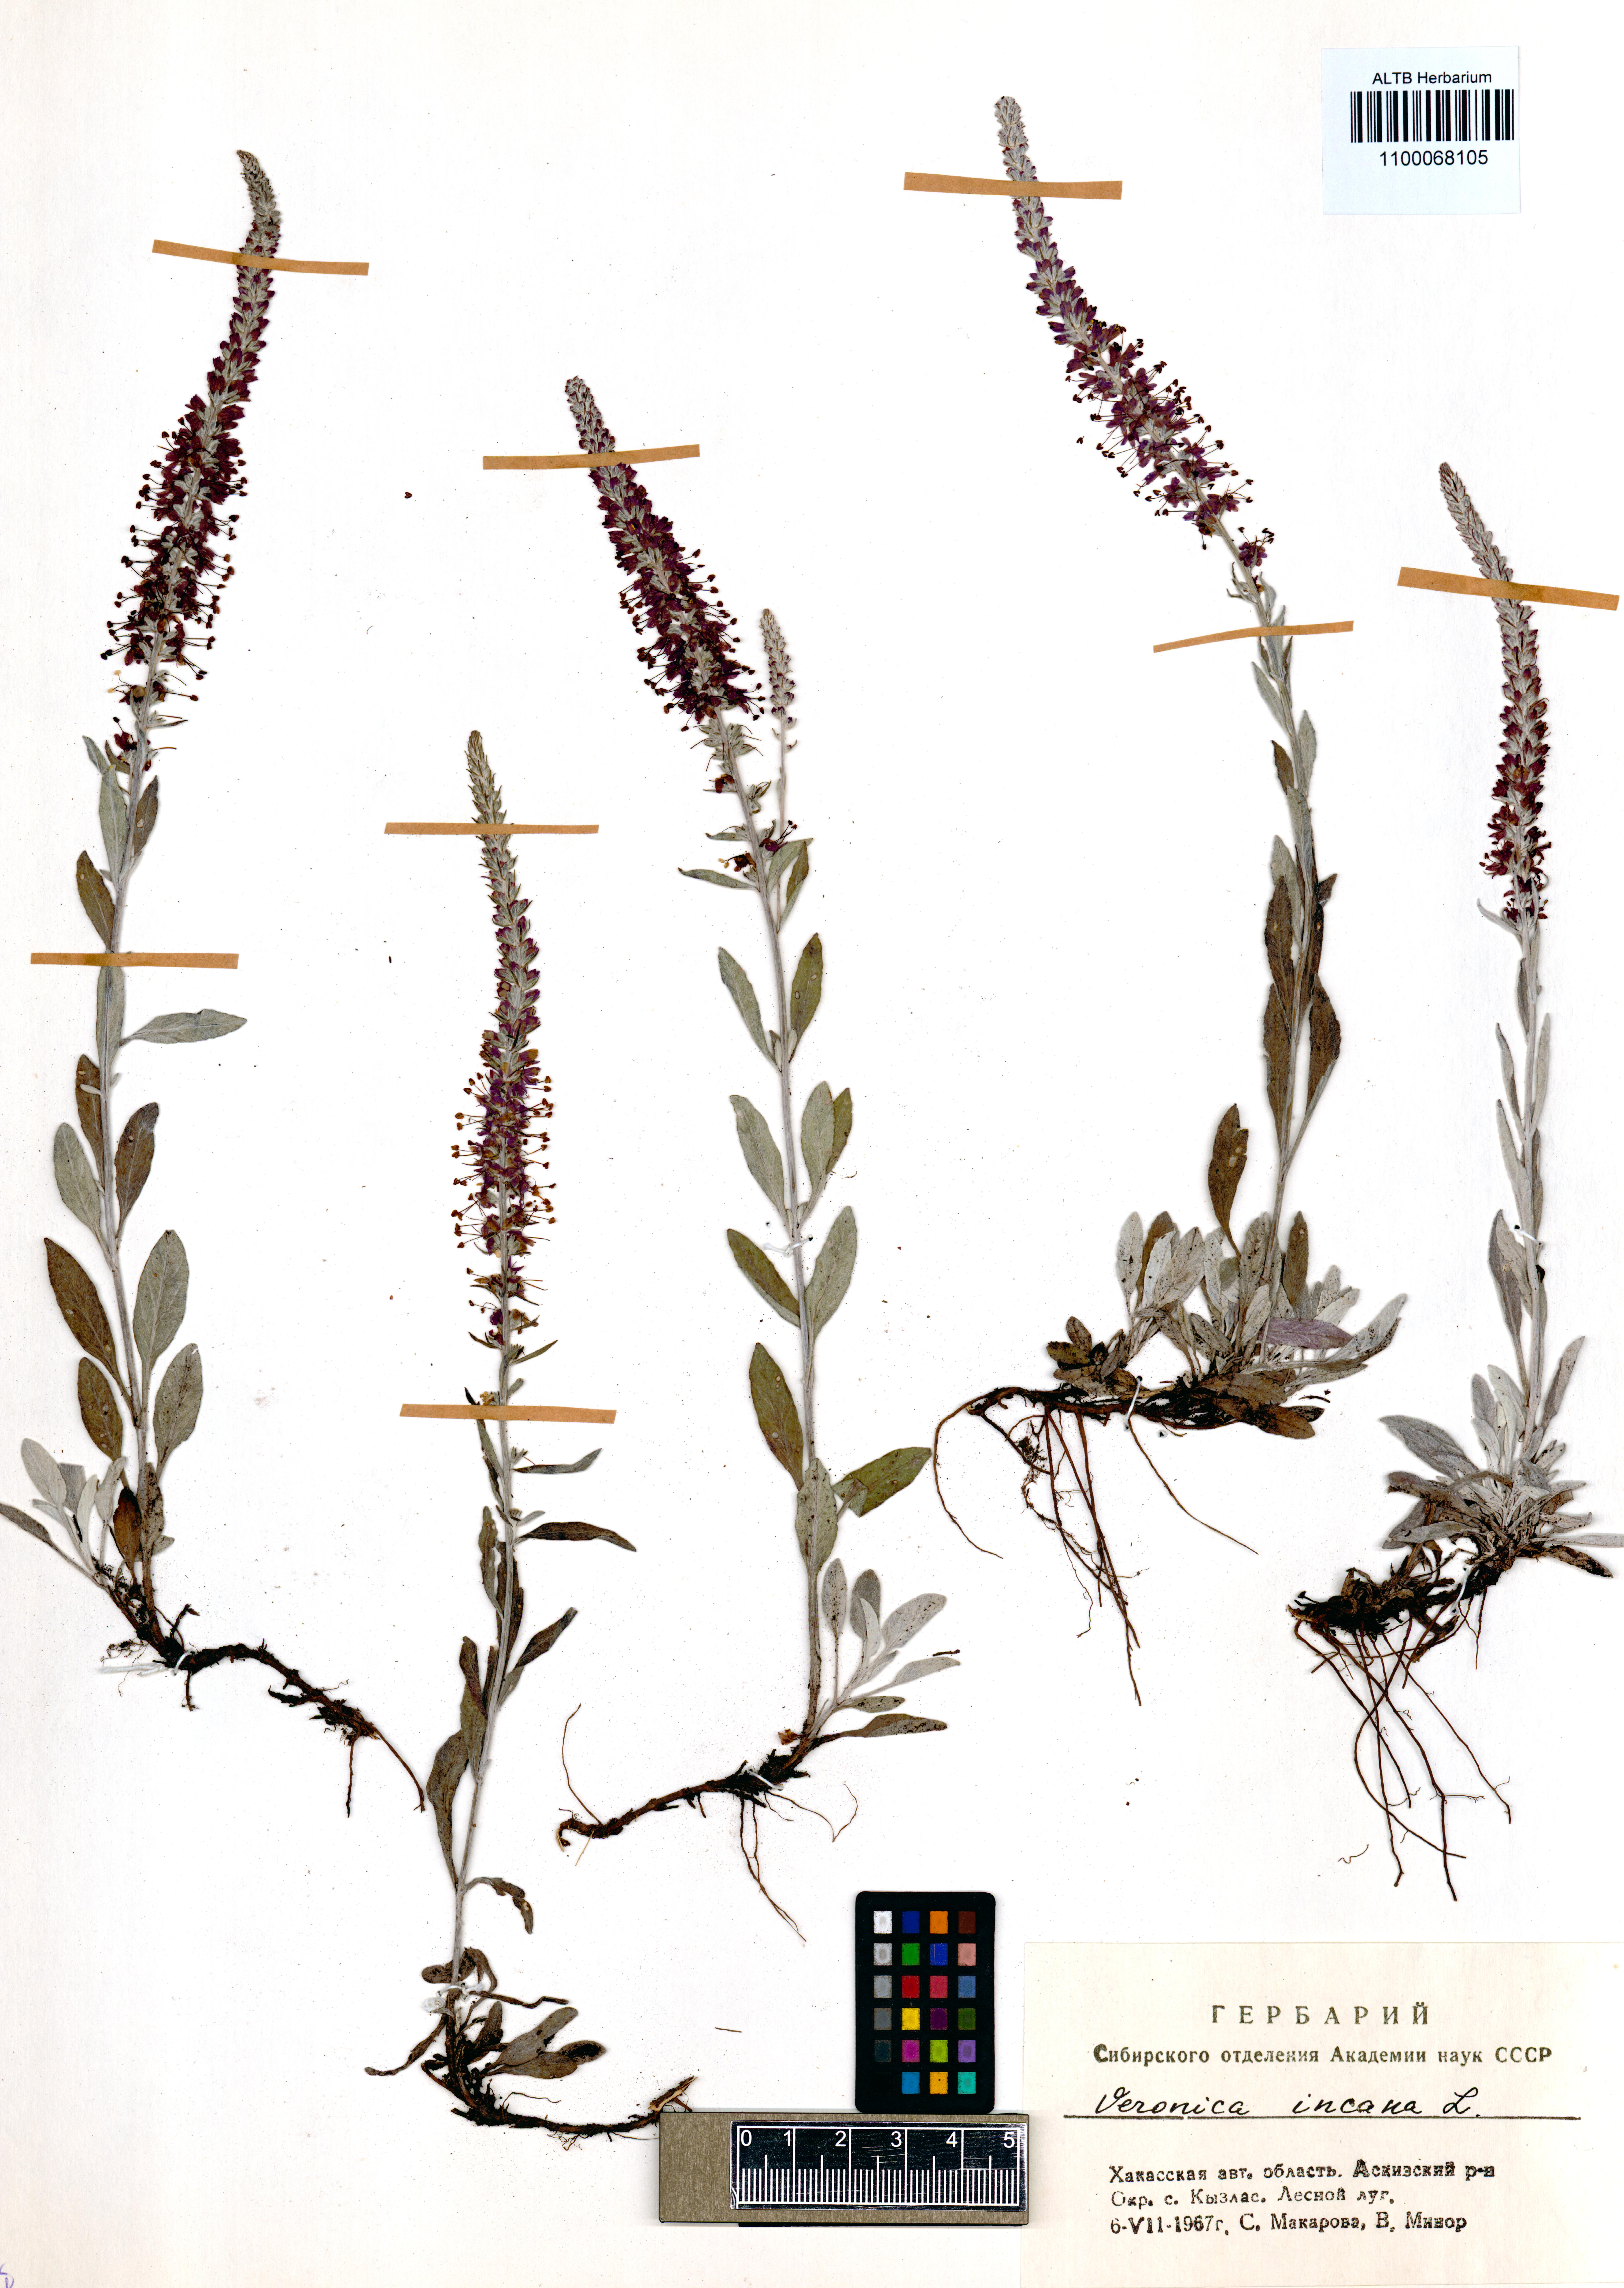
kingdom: Plantae
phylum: Tracheophyta
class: Magnoliopsida
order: Lamiales
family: Plantaginaceae
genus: Veronica
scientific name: Veronica incana
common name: Silver speedwell
